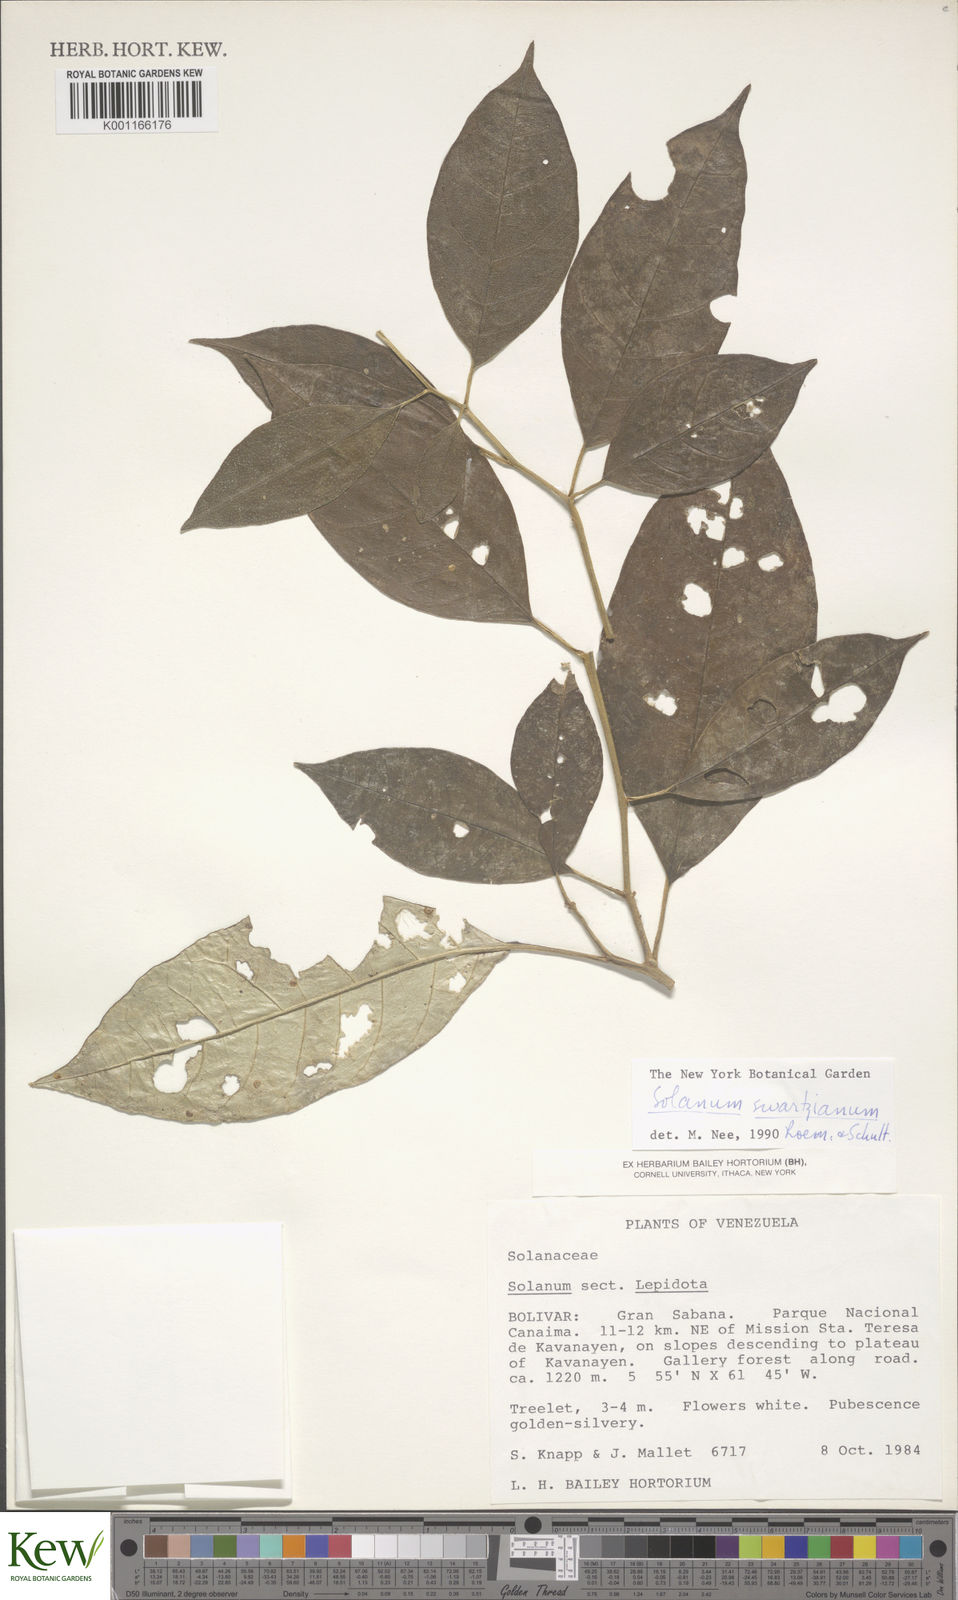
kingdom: Plantae
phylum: Tracheophyta
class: Magnoliopsida
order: Solanales
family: Solanaceae
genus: Solanum
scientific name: Solanum swartzianum
